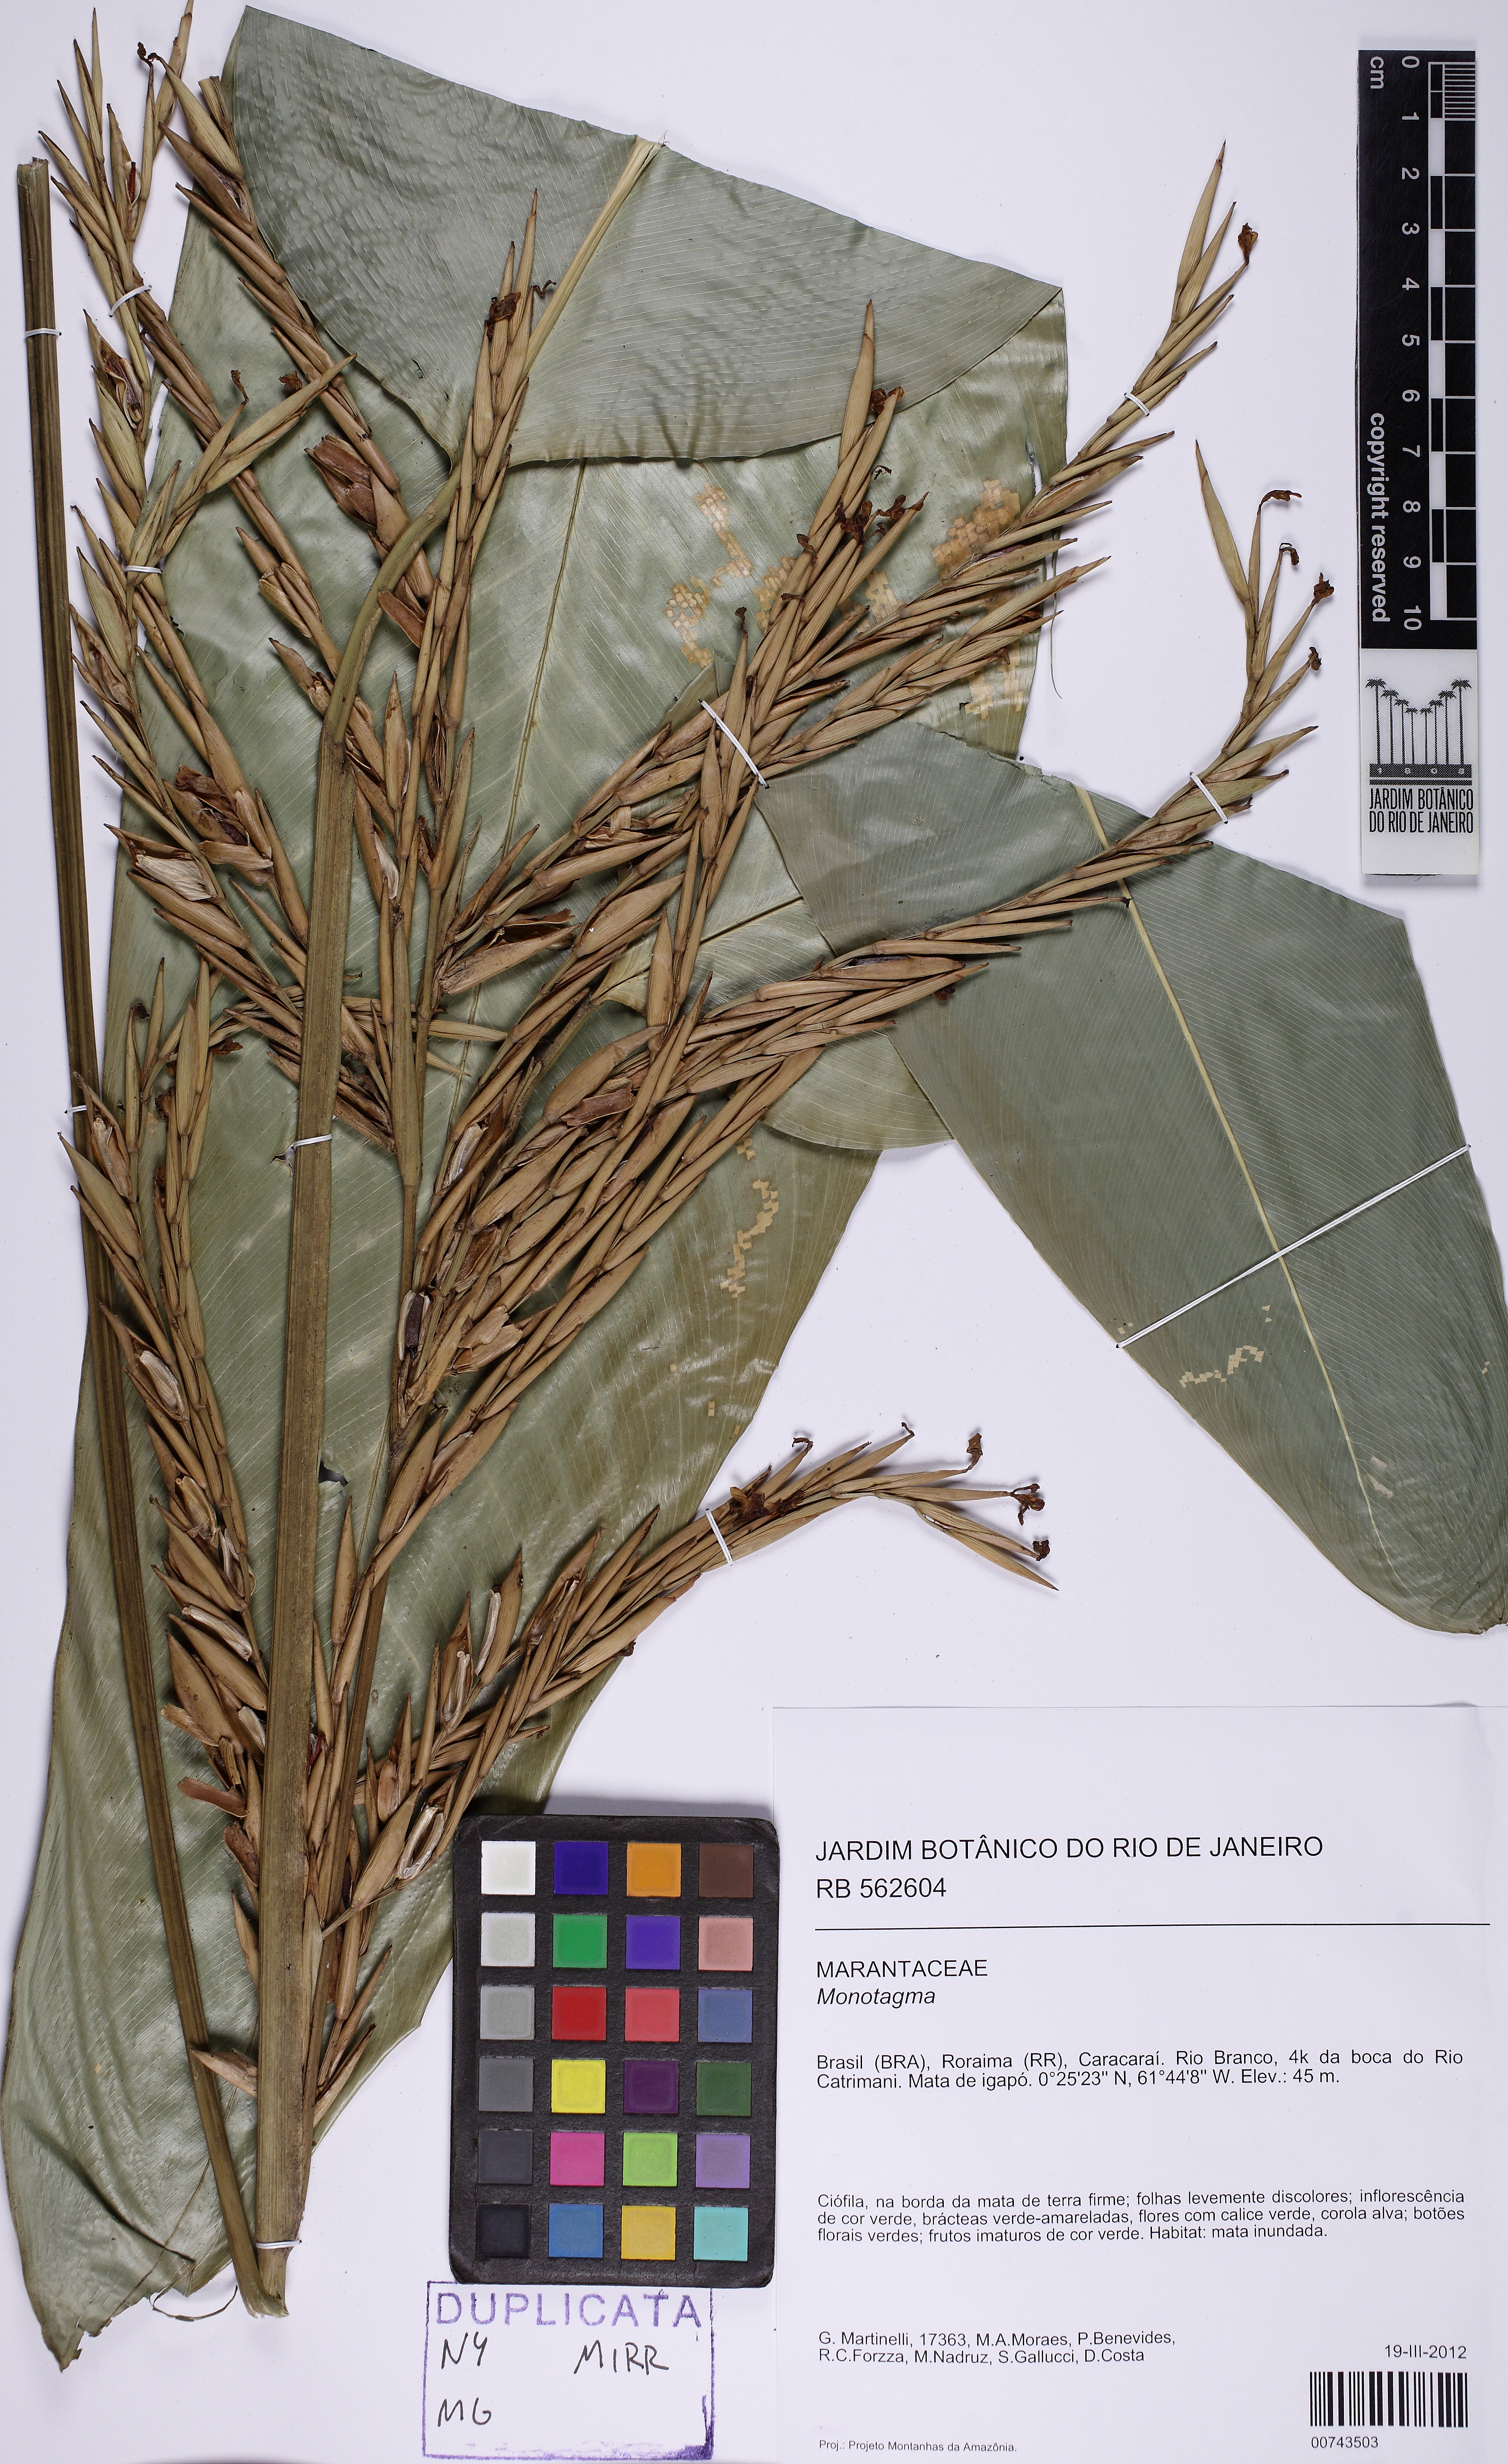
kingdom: Plantae
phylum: Tracheophyta
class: Liliopsida
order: Zingiberales
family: Marantaceae
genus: Monotagma
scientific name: Monotagma
